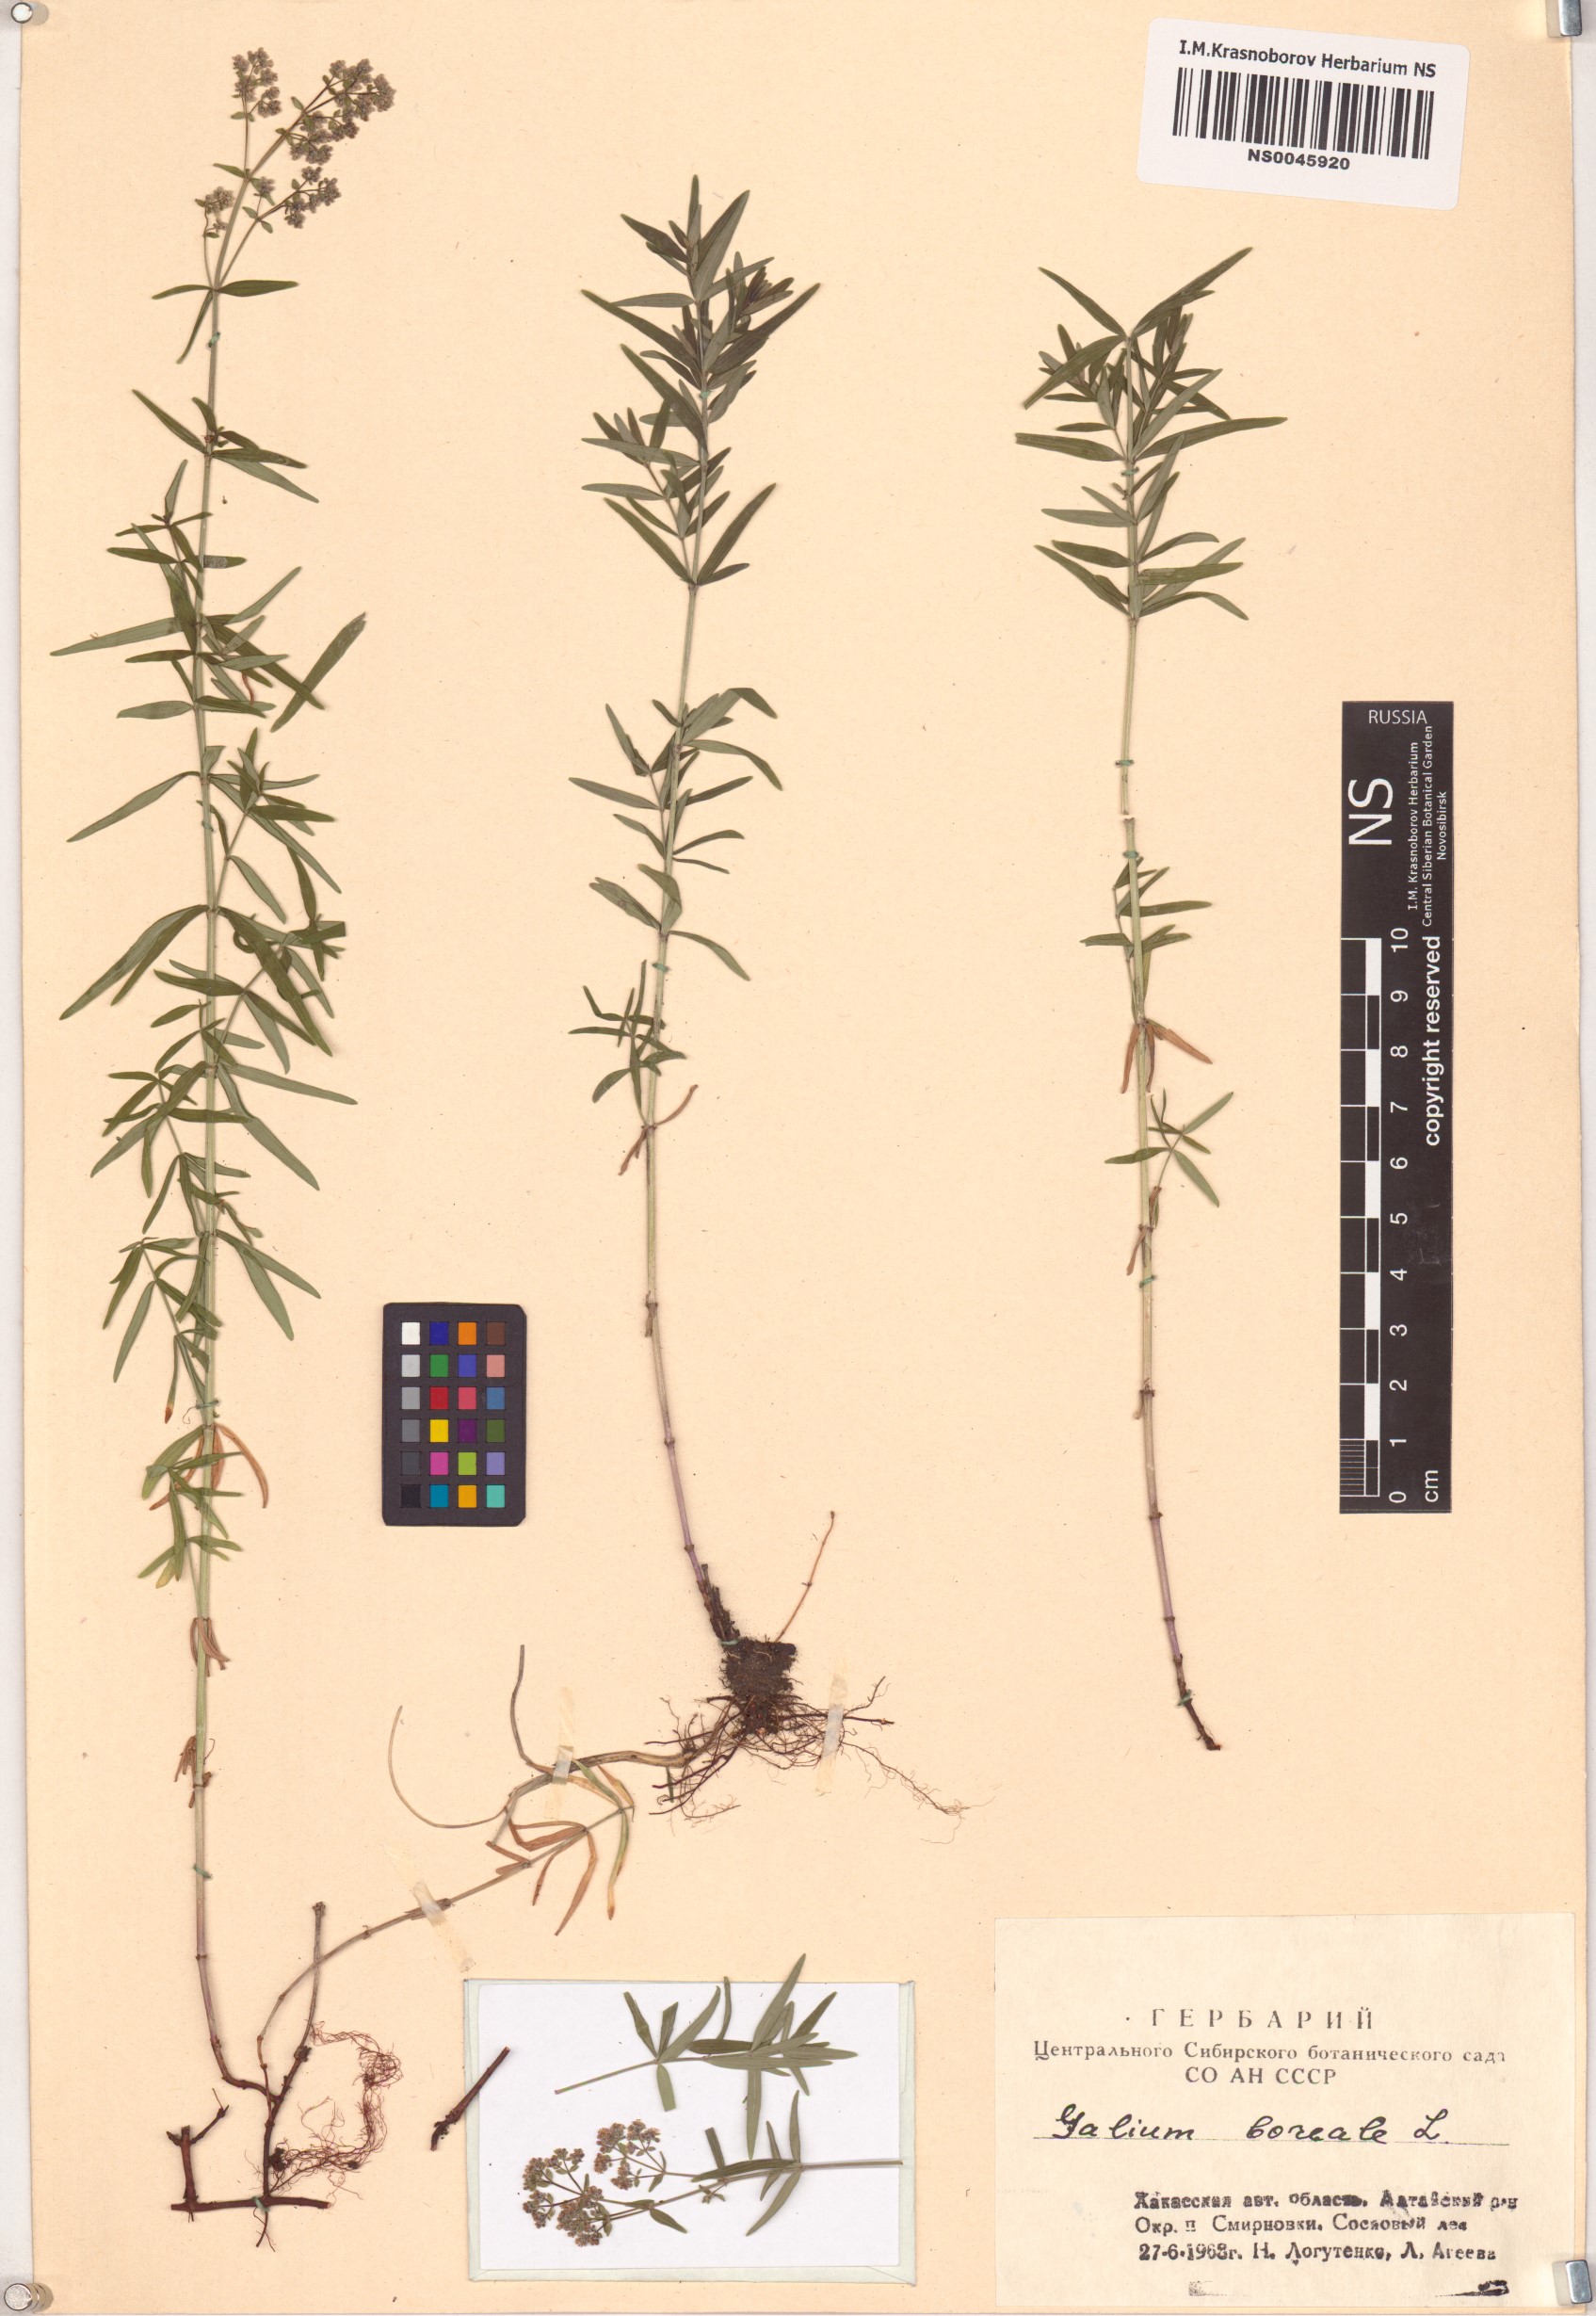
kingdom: Plantae
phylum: Tracheophyta
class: Magnoliopsida
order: Gentianales
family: Rubiaceae
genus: Galium
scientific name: Galium boreale
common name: Northern bedstraw
